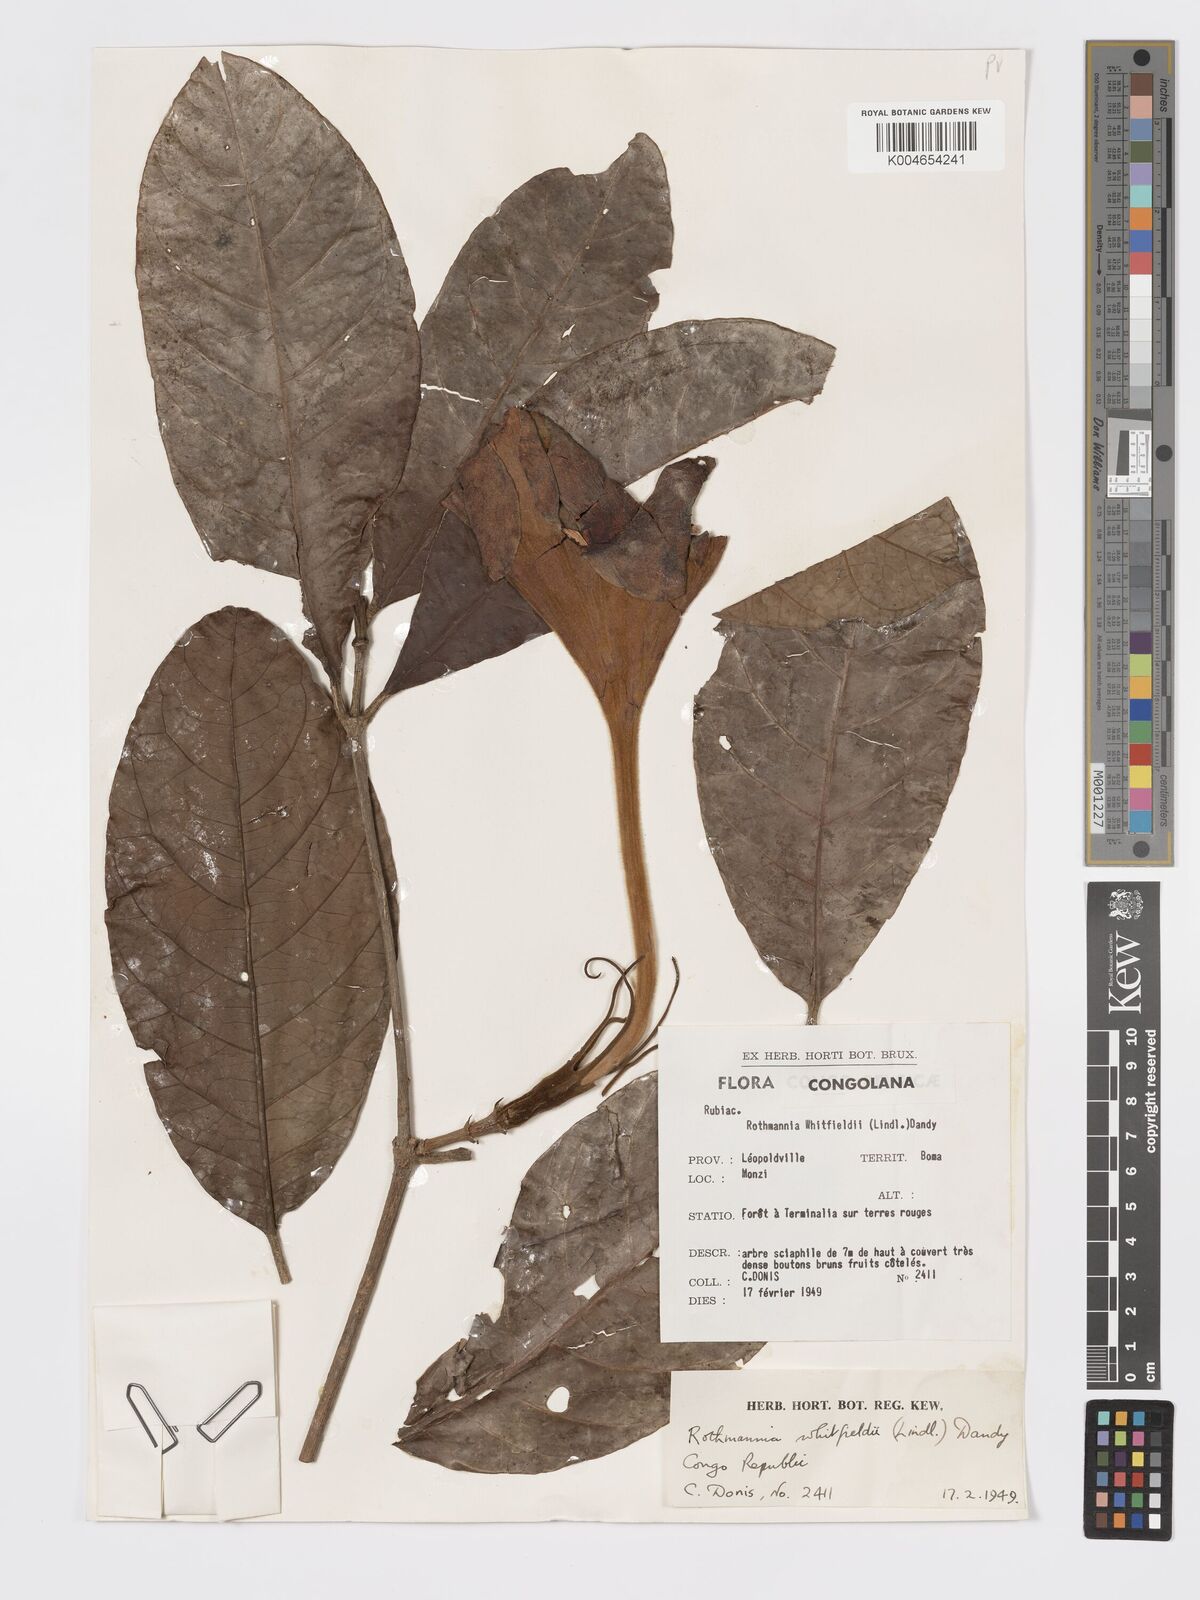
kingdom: Plantae
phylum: Tracheophyta
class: Magnoliopsida
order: Gentianales
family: Rubiaceae
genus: Rothmannia
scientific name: Rothmannia whitfieldii
